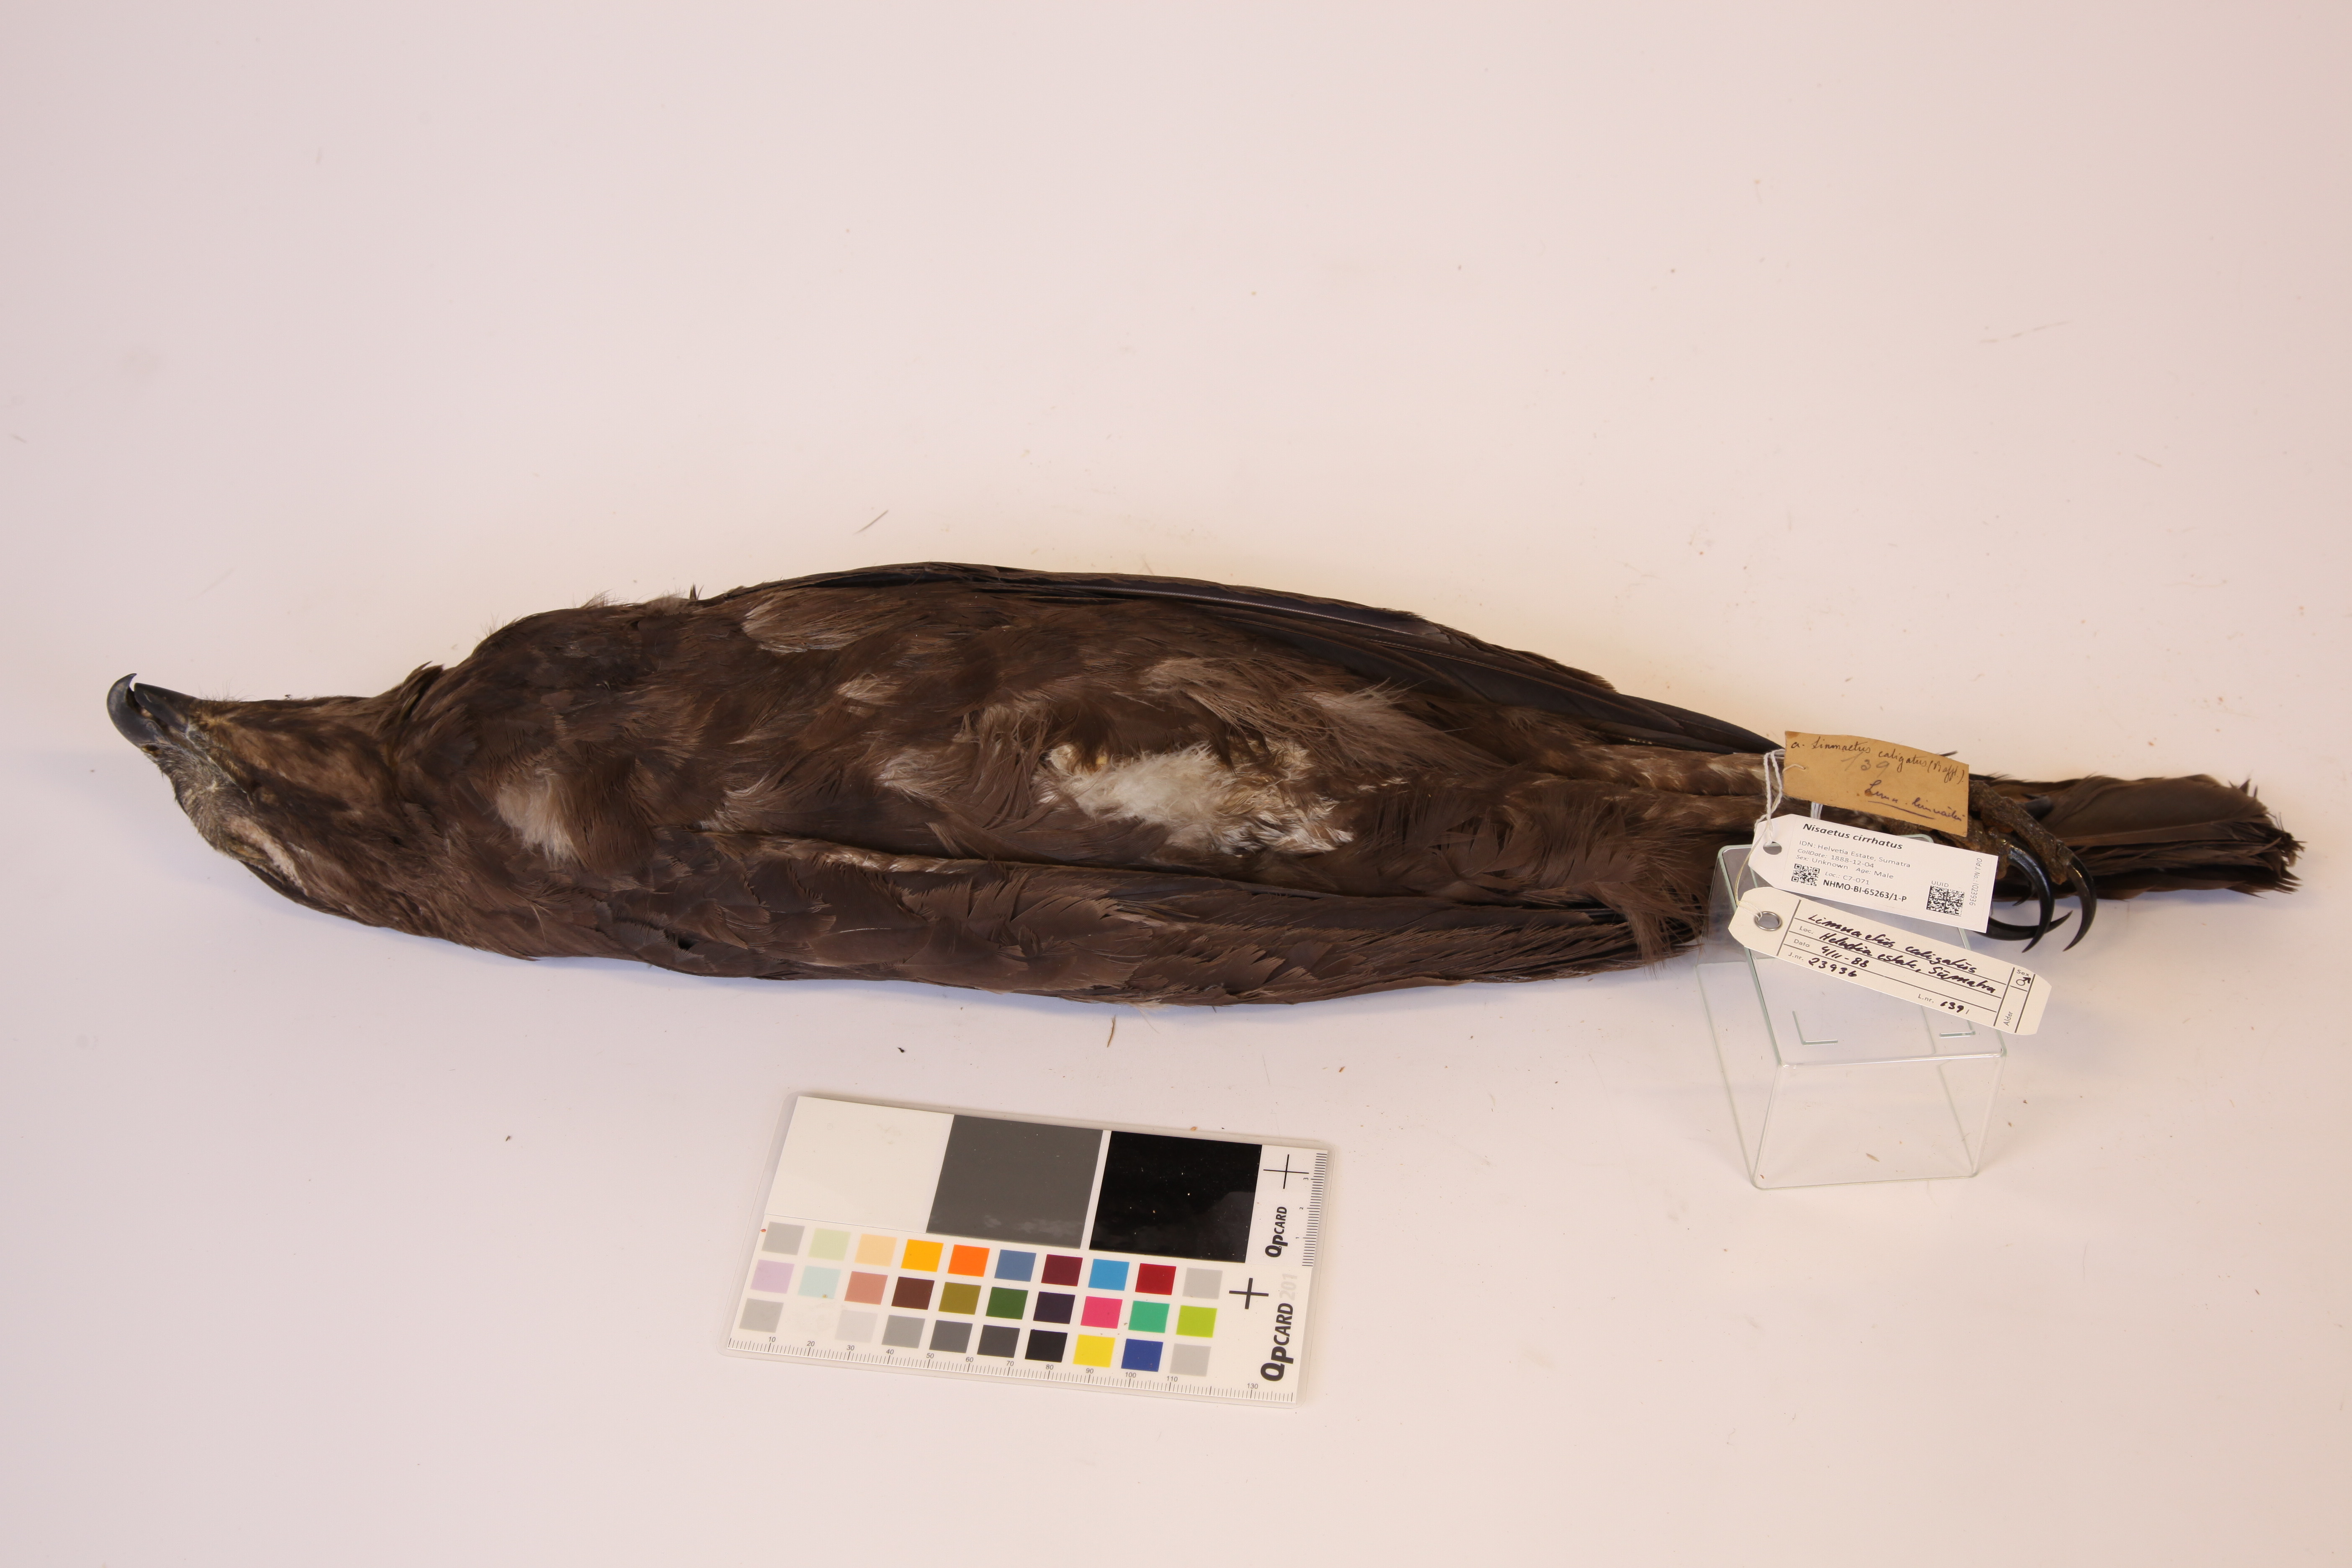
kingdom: Animalia
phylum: Chordata
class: Aves
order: Accipitriformes
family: Accipitridae
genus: Nisaetus
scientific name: Nisaetus cirrhatus
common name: Changeable hawk-eagle
